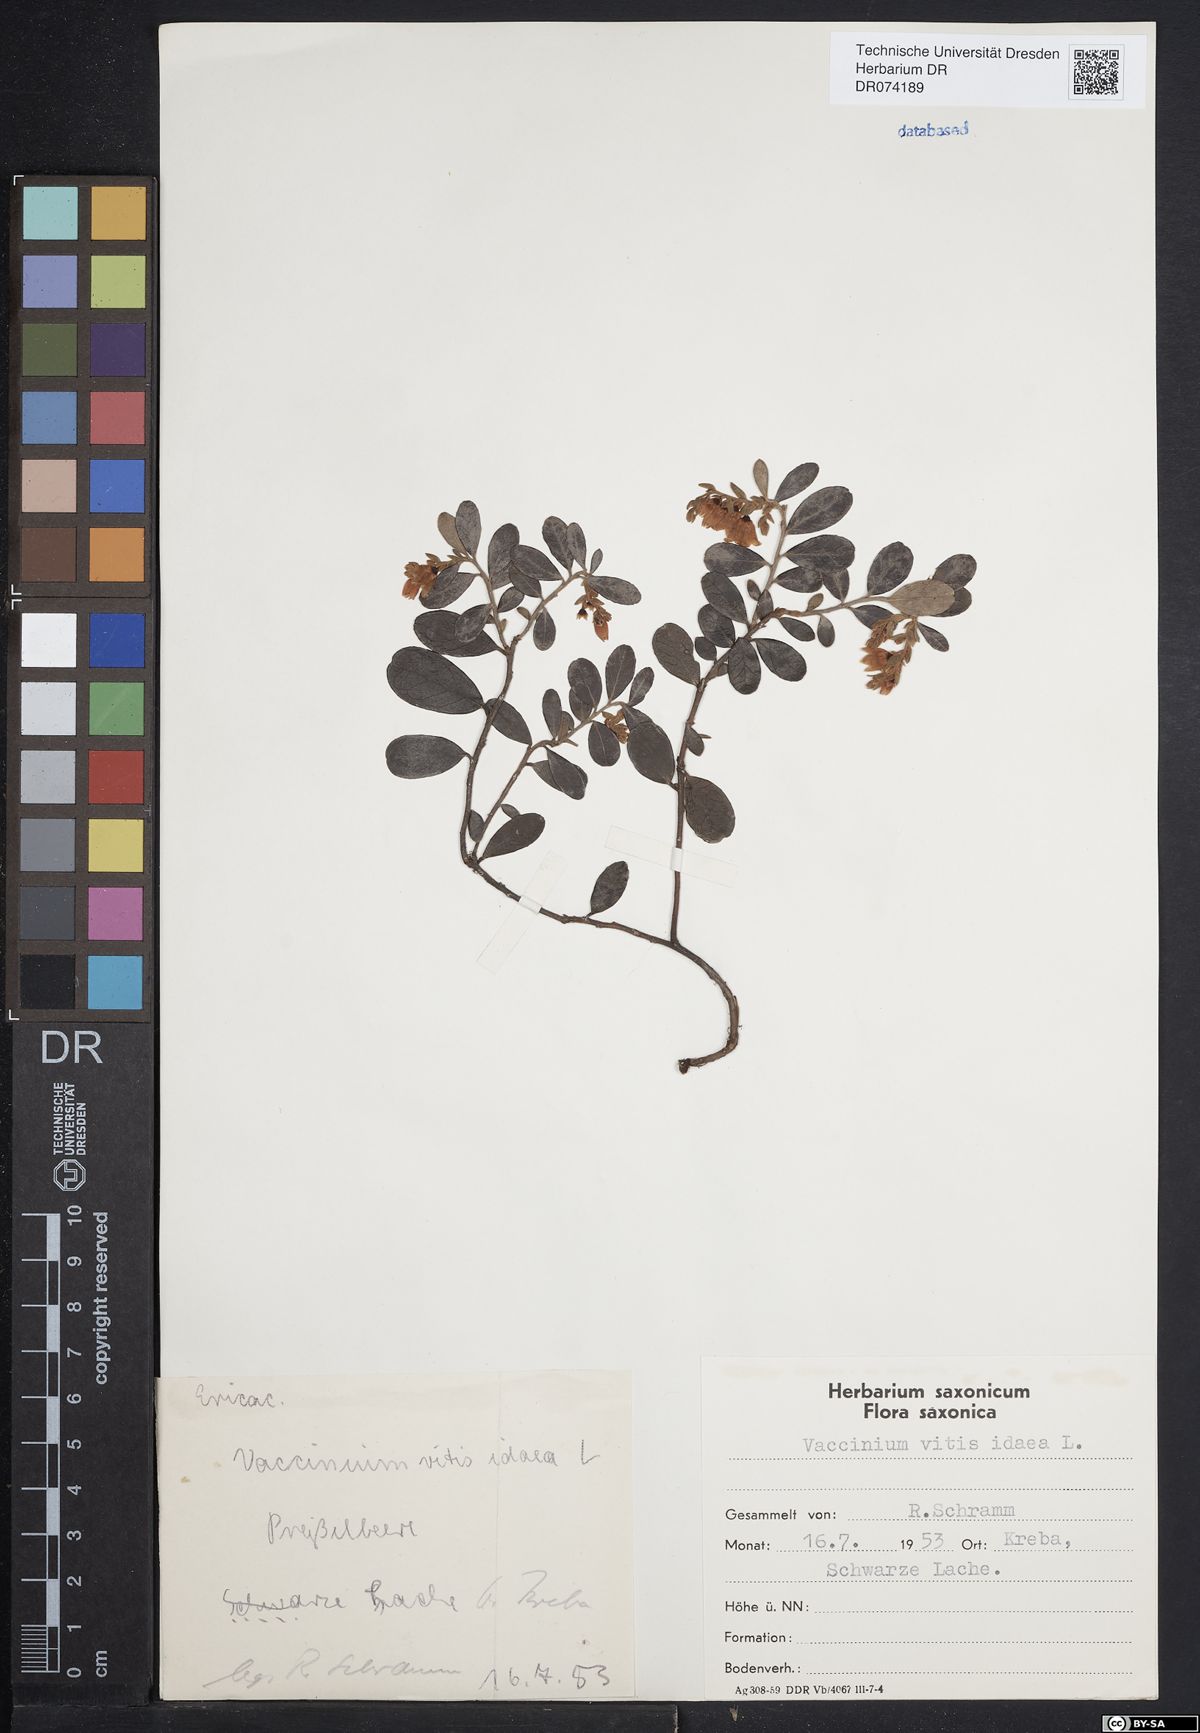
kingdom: Plantae
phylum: Tracheophyta
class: Magnoliopsida
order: Ericales
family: Ericaceae
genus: Vaccinium
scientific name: Vaccinium vitis-idaea
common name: Cowberry
